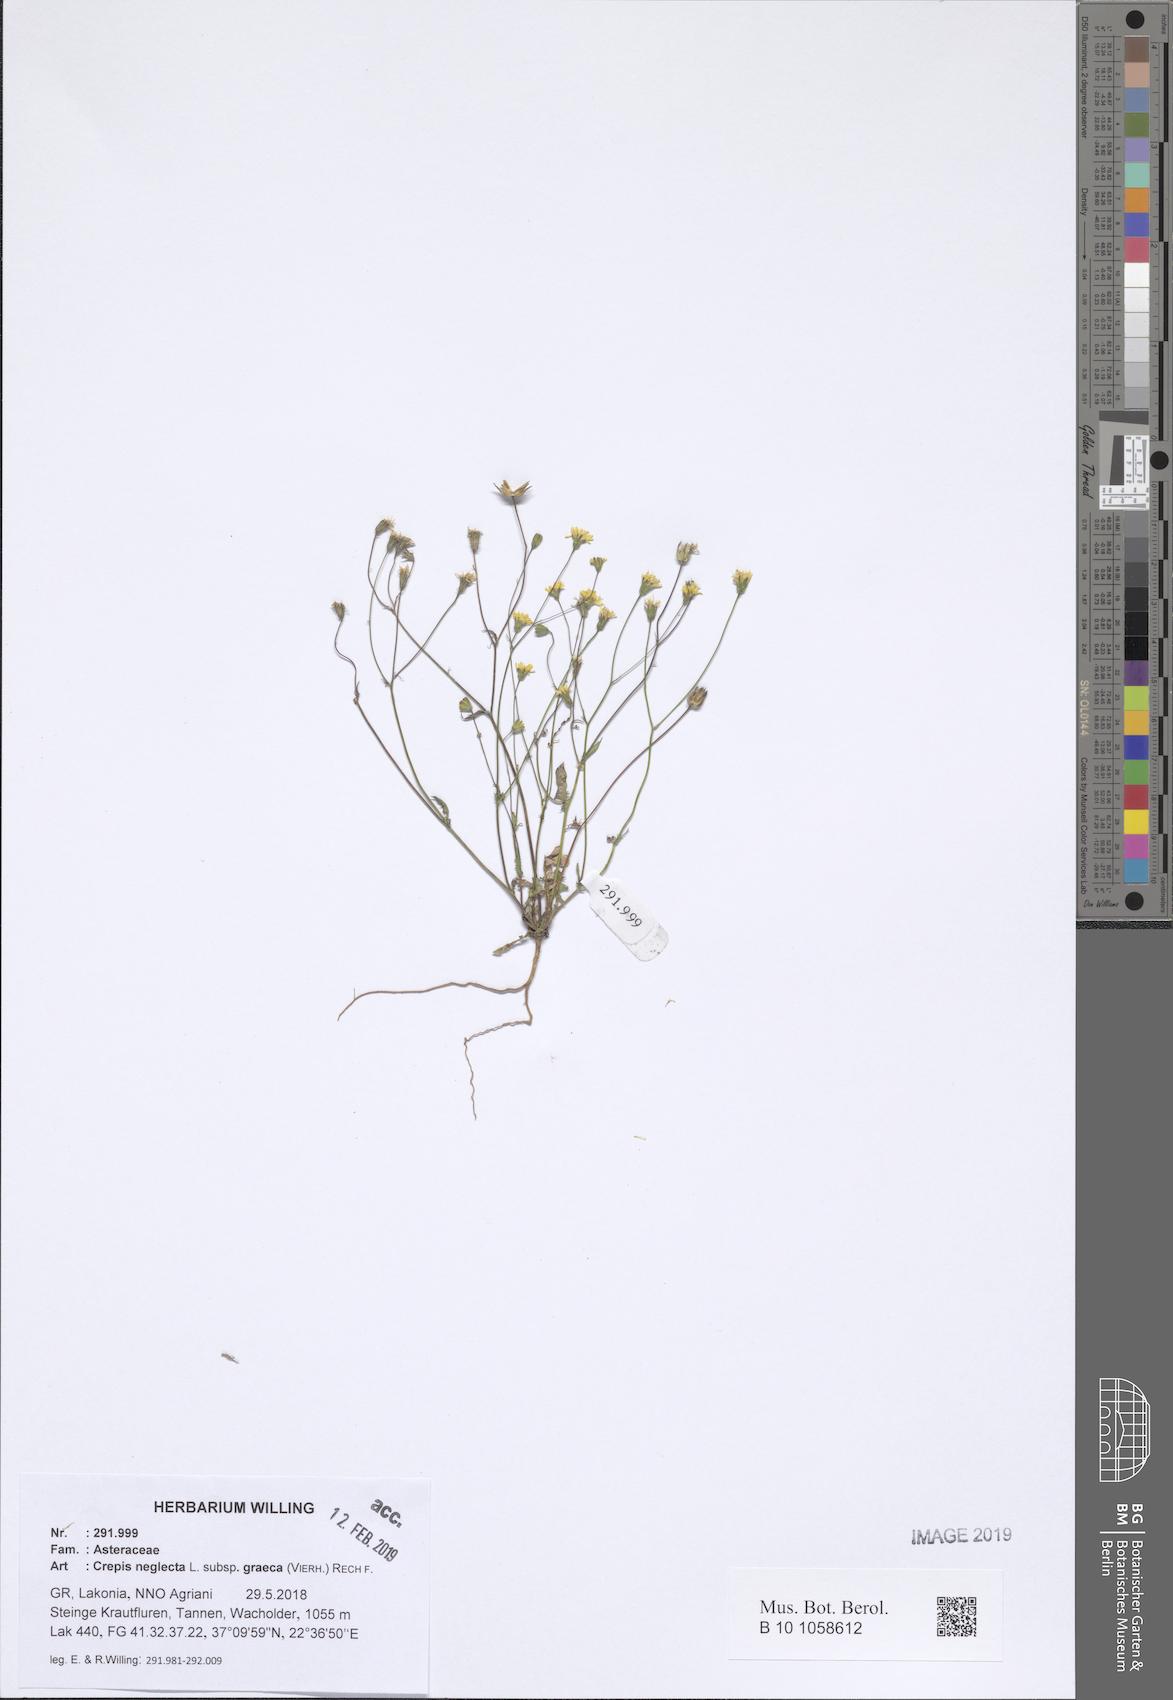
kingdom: Plantae
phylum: Tracheophyta
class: Magnoliopsida
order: Asterales
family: Asteraceae
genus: Crepis
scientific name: Crepis neglecta
